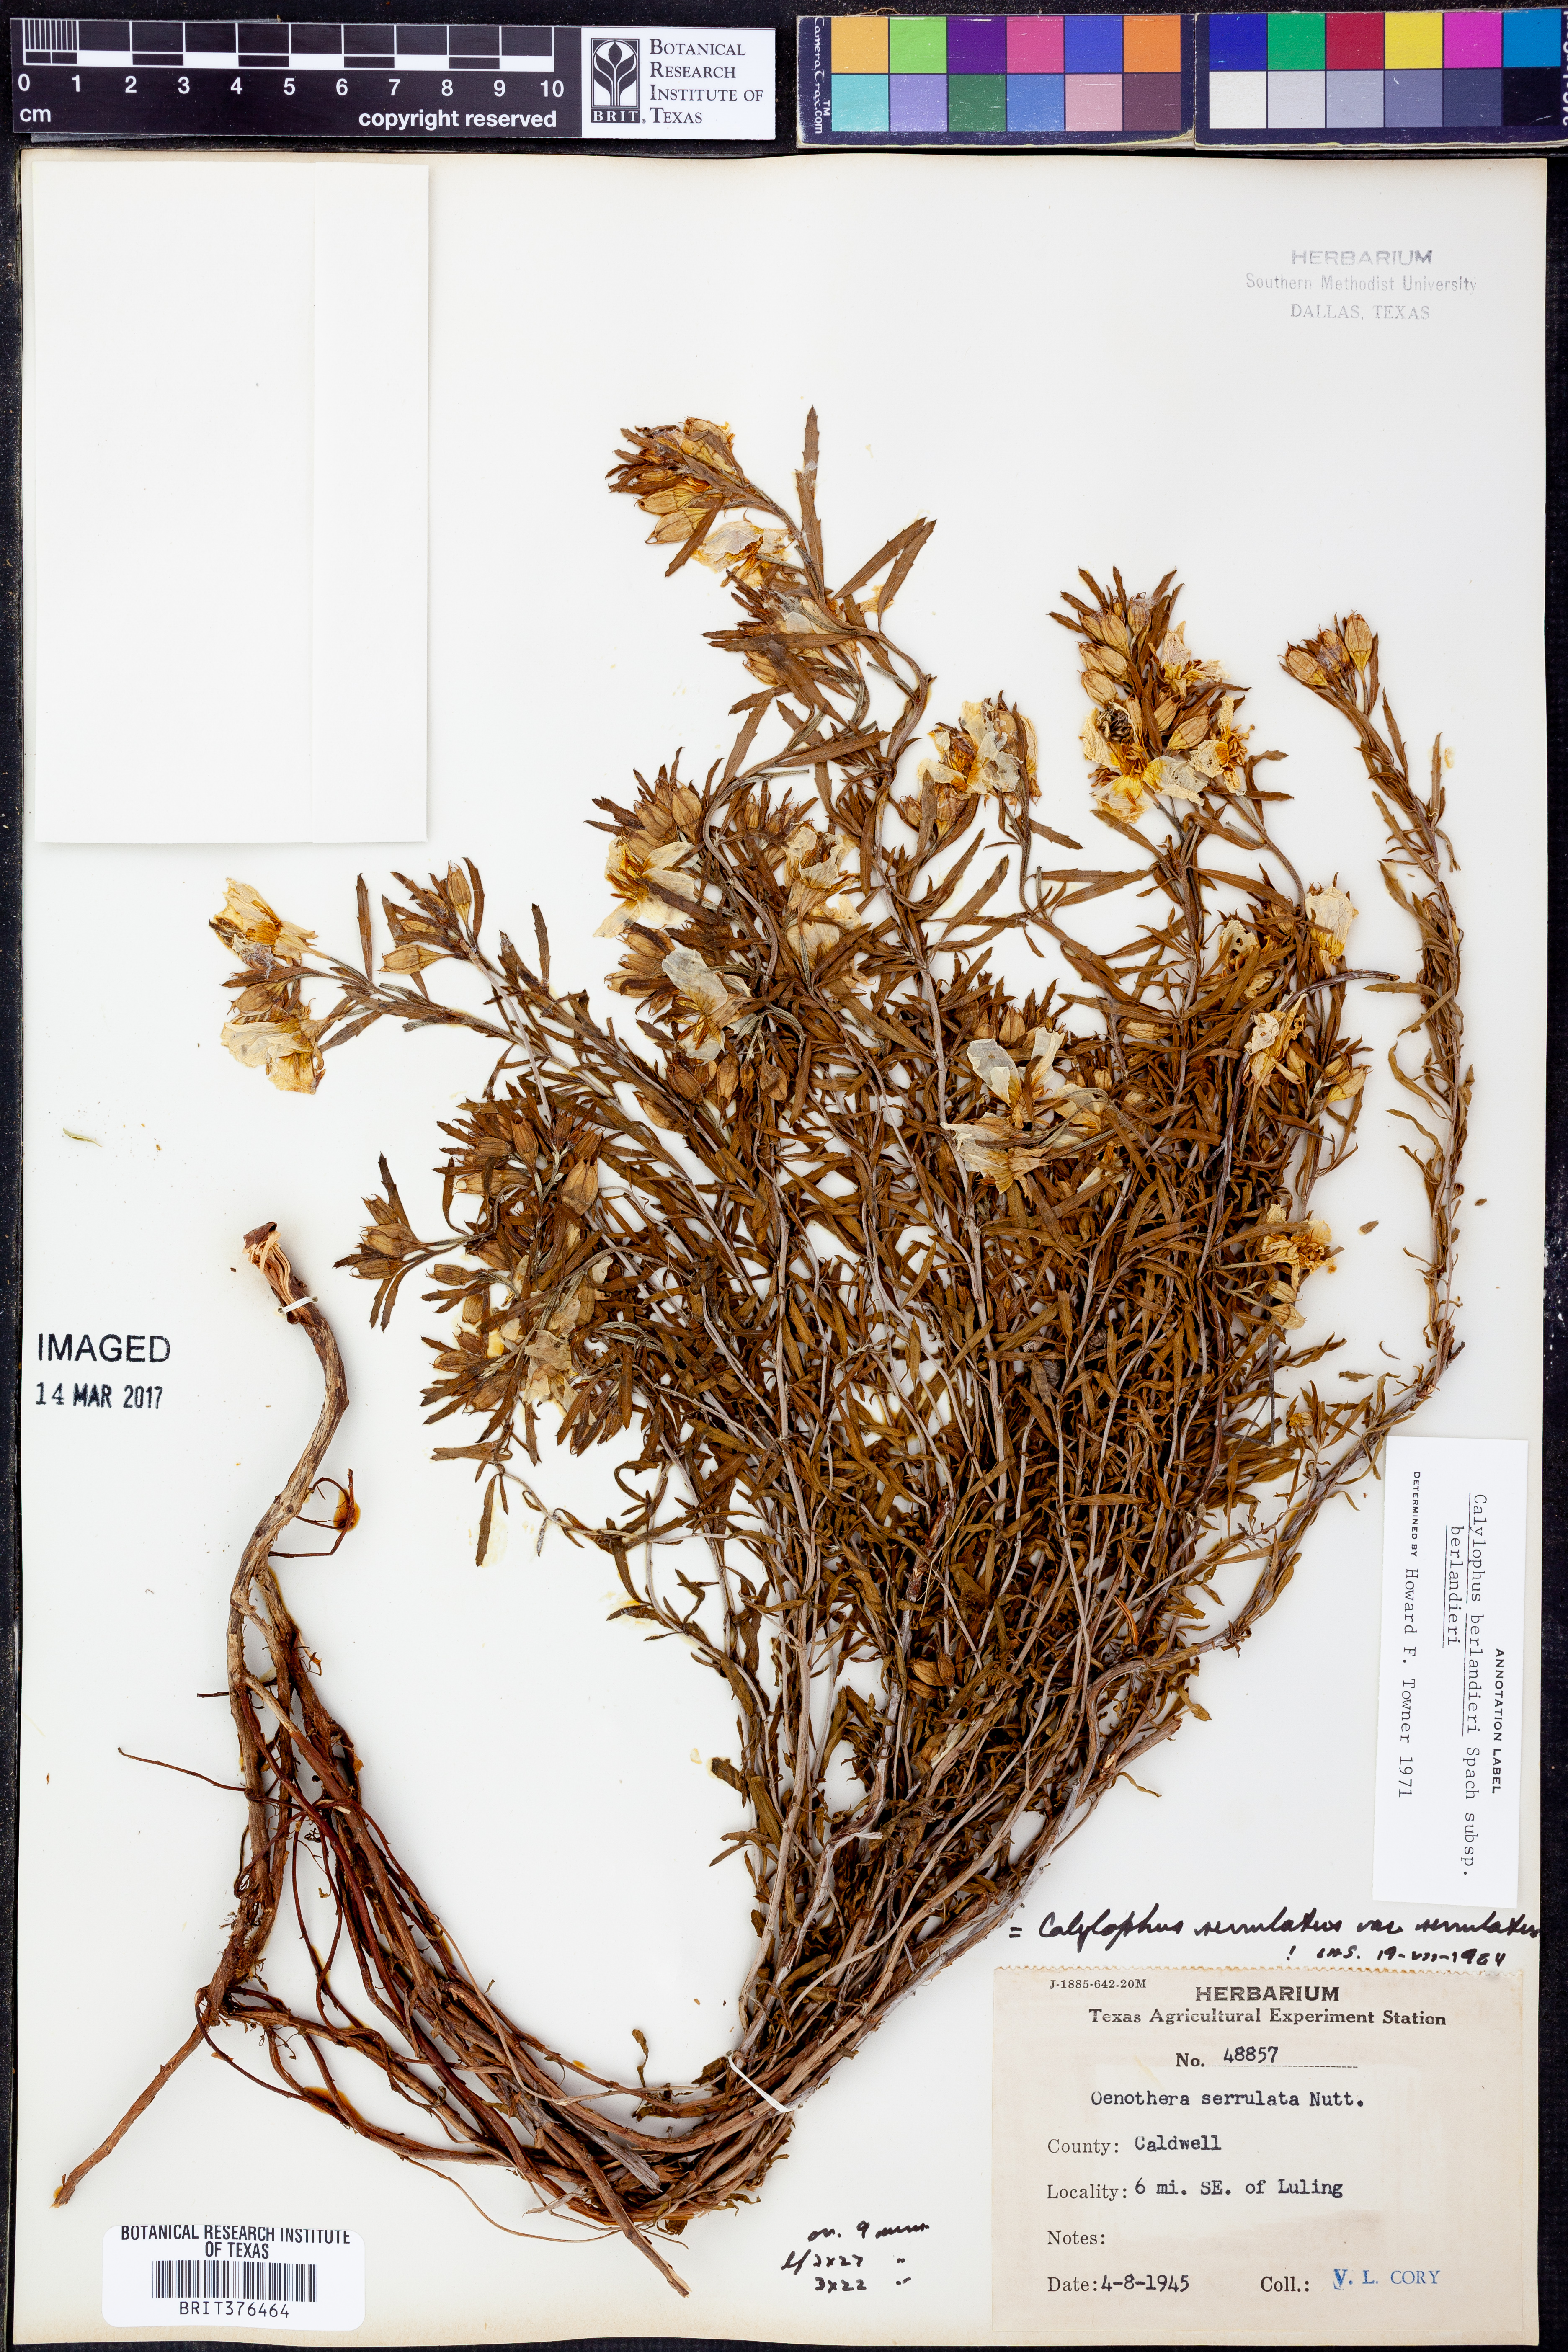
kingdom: Plantae
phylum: Tracheophyta
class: Magnoliopsida
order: Myrtales
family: Onagraceae
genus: Oenothera
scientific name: Oenothera capillifolia
